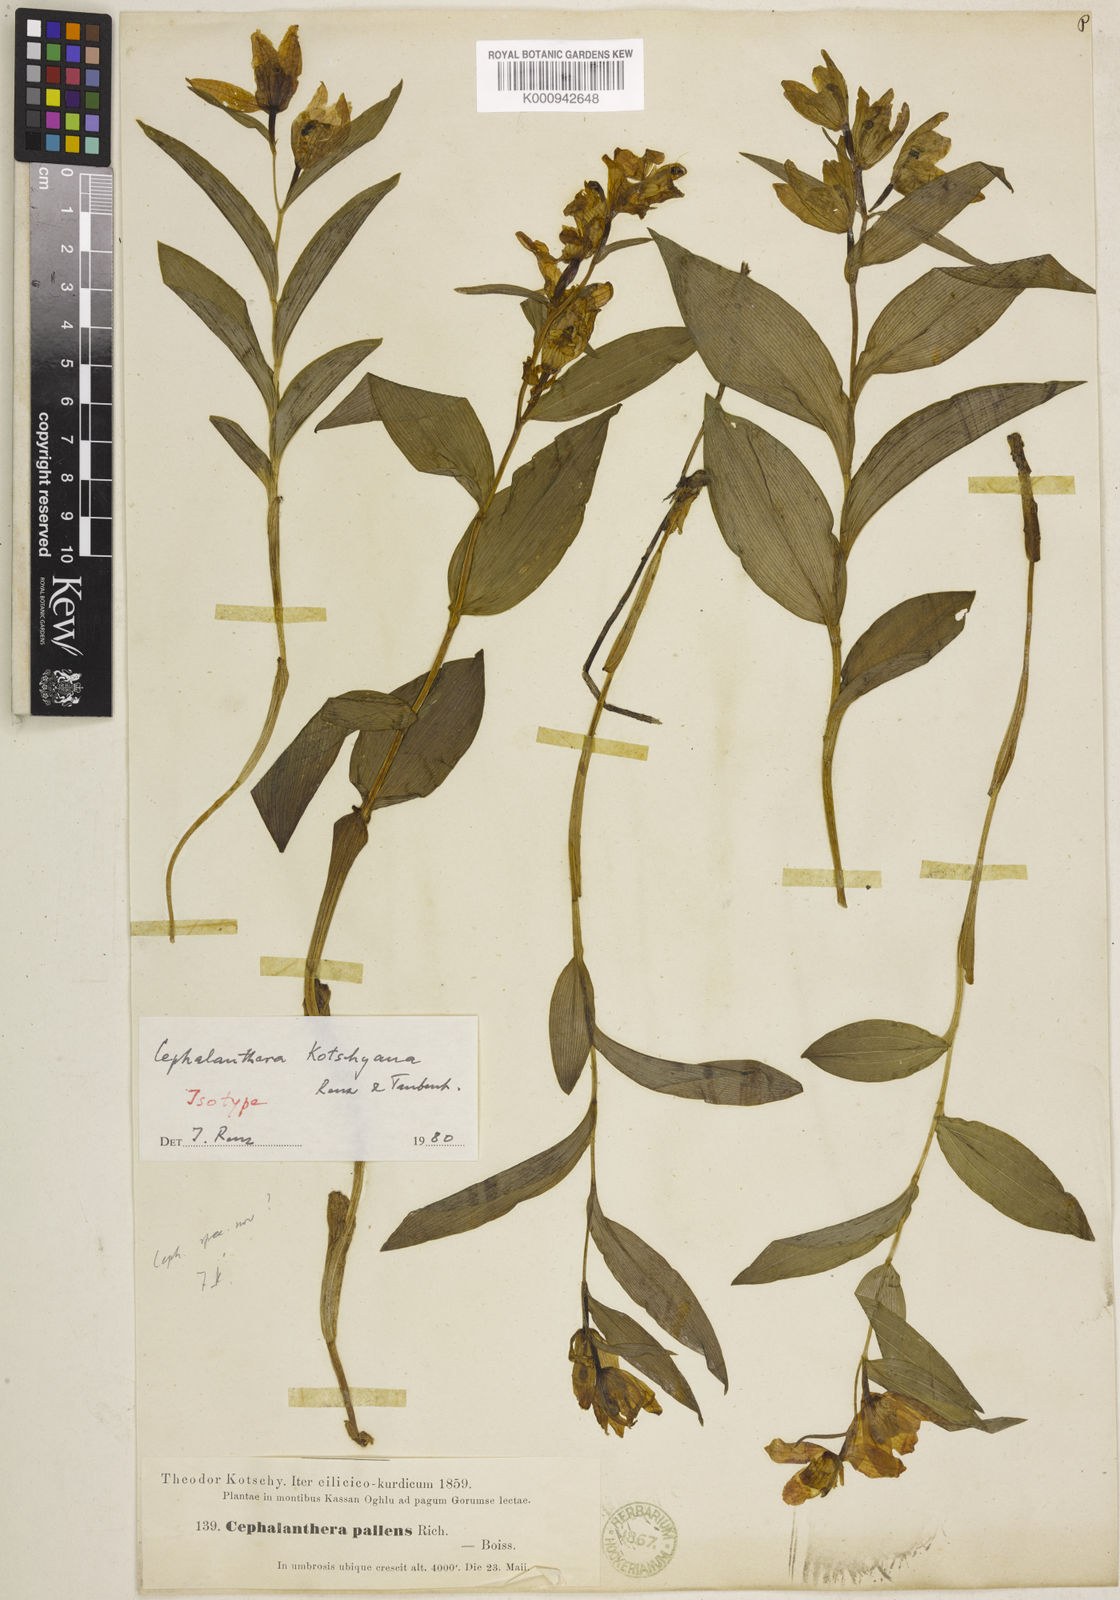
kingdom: Plantae
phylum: Tracheophyta
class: Liliopsida
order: Asparagales
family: Orchidaceae
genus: Cephalanthera
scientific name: Cephalanthera kotschyana
